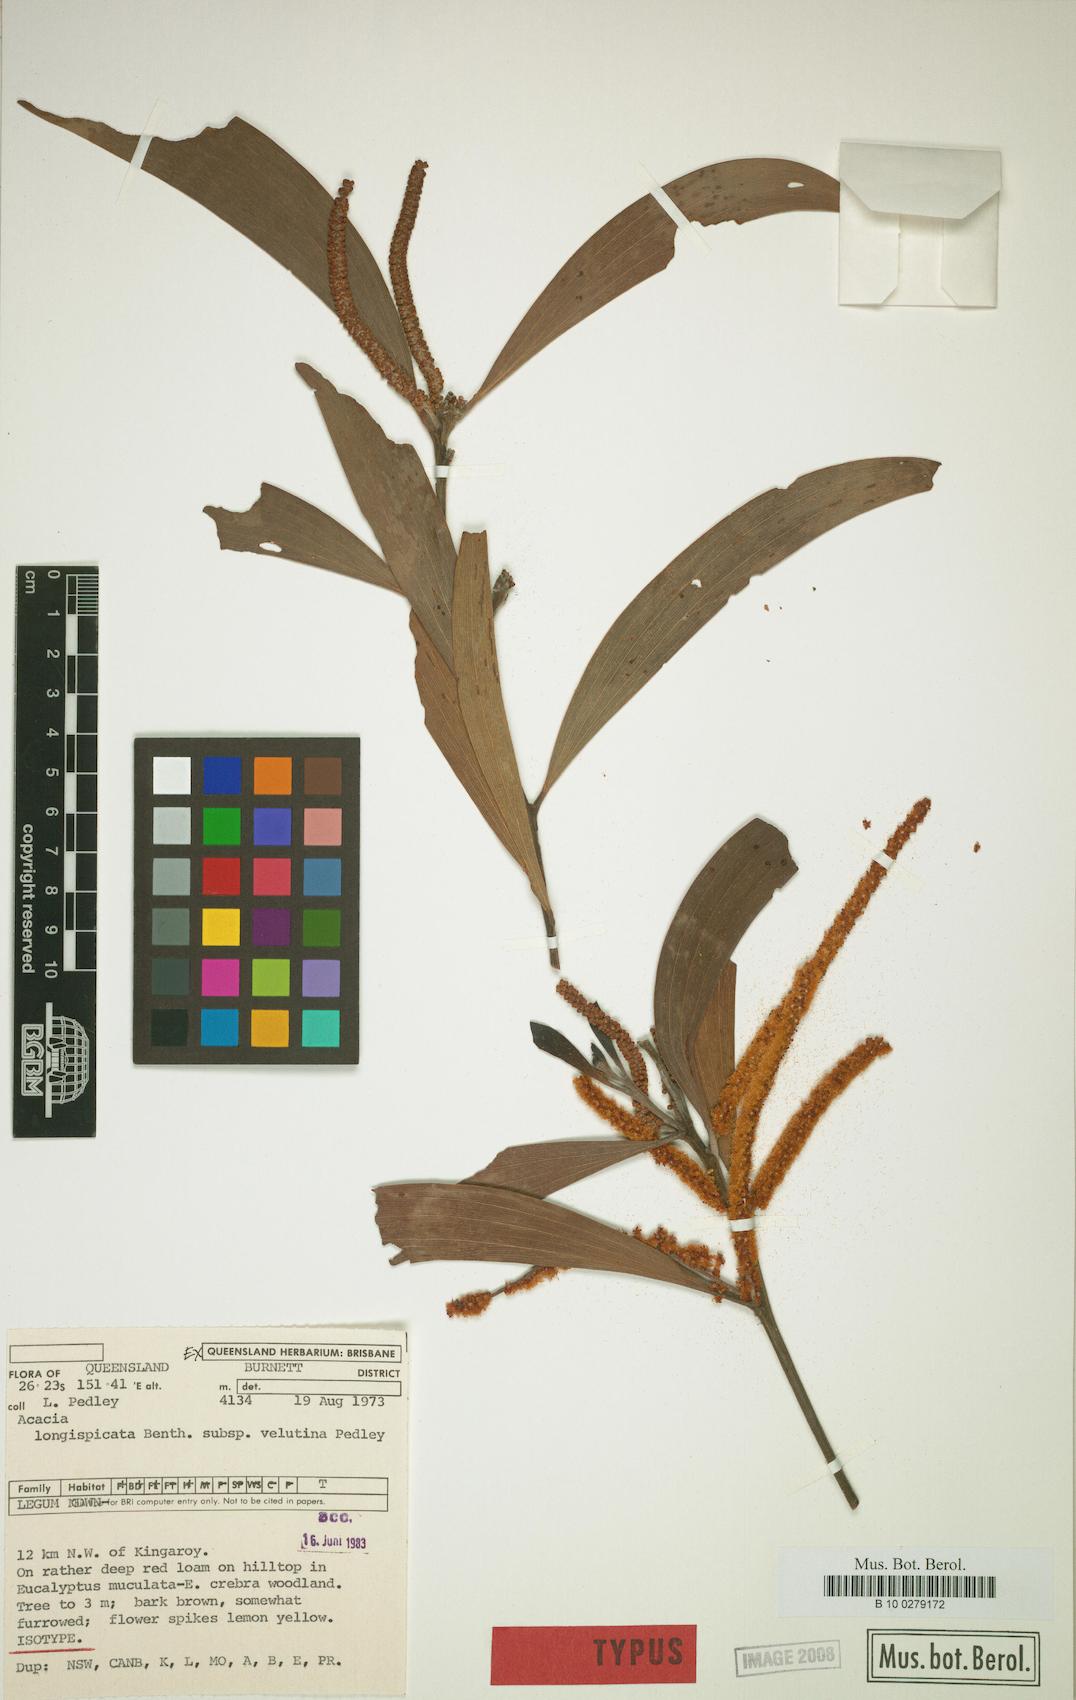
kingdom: Plantae
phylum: Tracheophyta
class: Magnoliopsida
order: Fabales
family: Fabaceae
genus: Acacia
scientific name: Acacia tingoorensis
